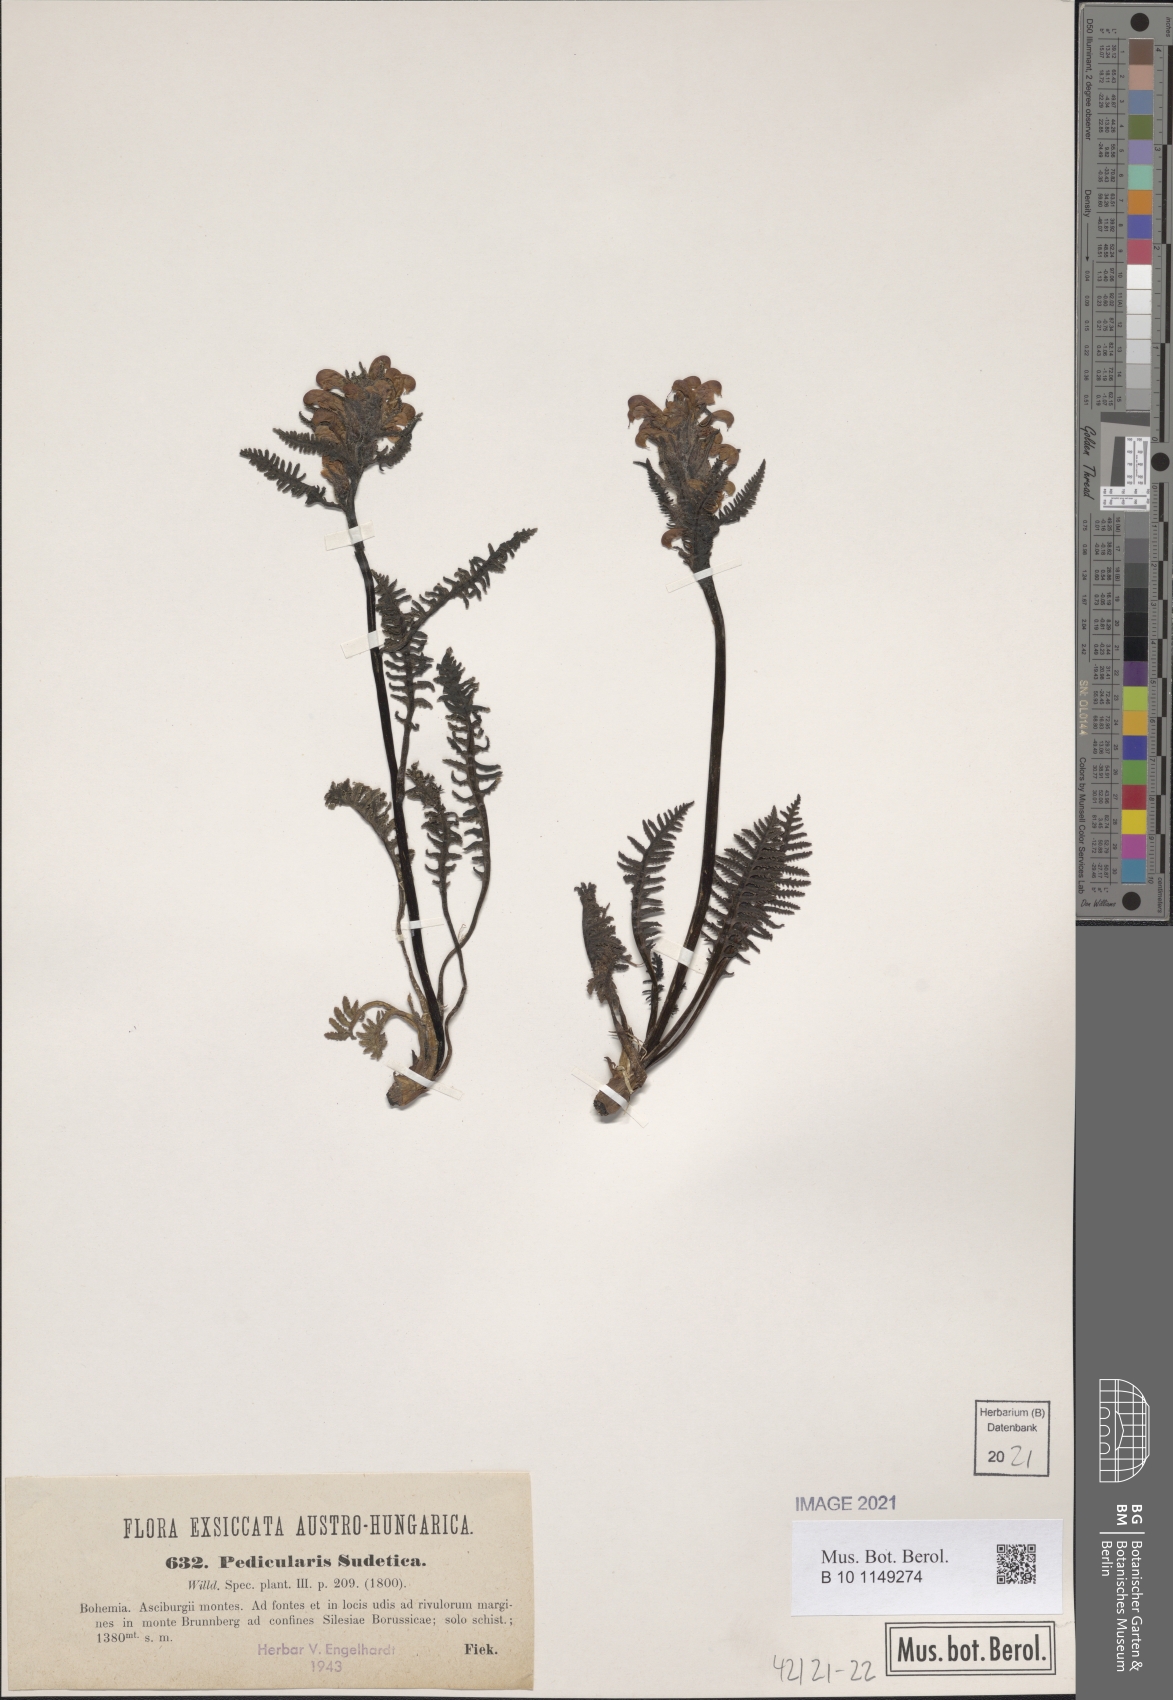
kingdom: Plantae
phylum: Tracheophyta
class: Magnoliopsida
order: Lamiales
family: Orobanchaceae
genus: Pedicularis
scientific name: Pedicularis sudetica
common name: Sudeten lousewort
